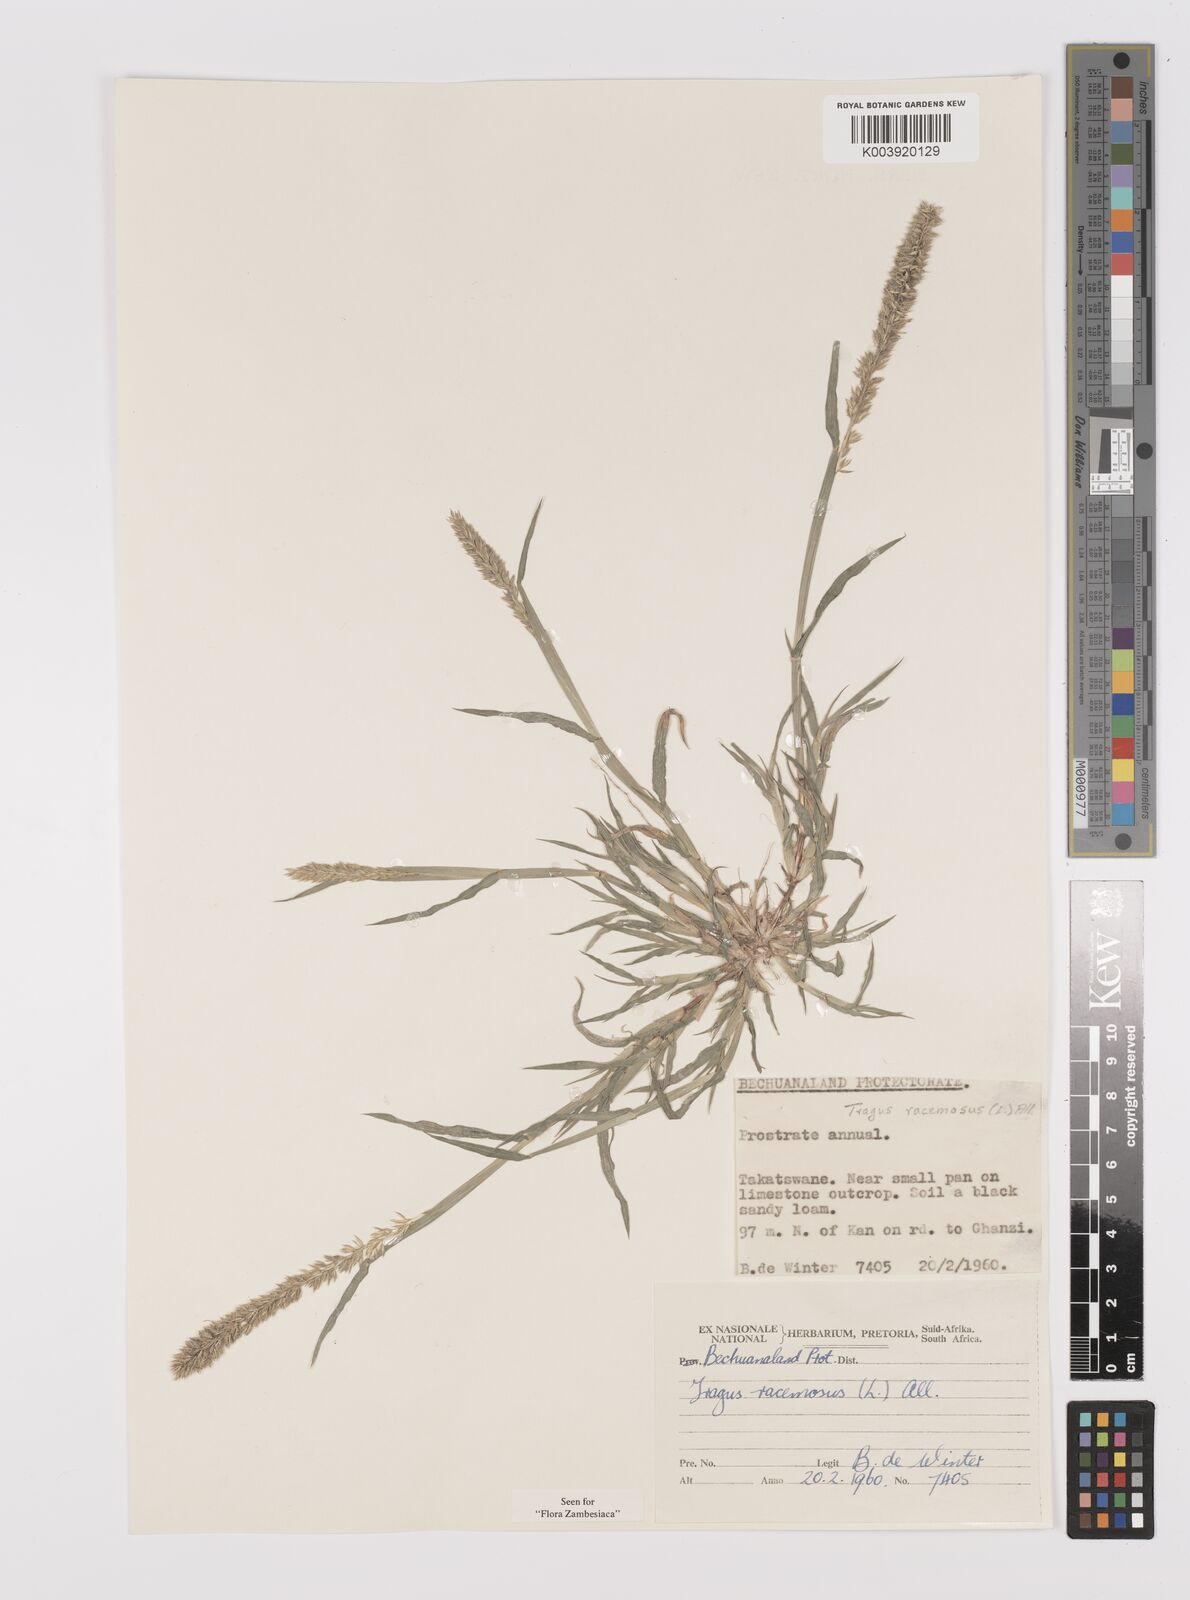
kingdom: Plantae
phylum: Tracheophyta
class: Liliopsida
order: Poales
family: Poaceae
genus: Tragus
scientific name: Tragus racemosus
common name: European bur-grass
